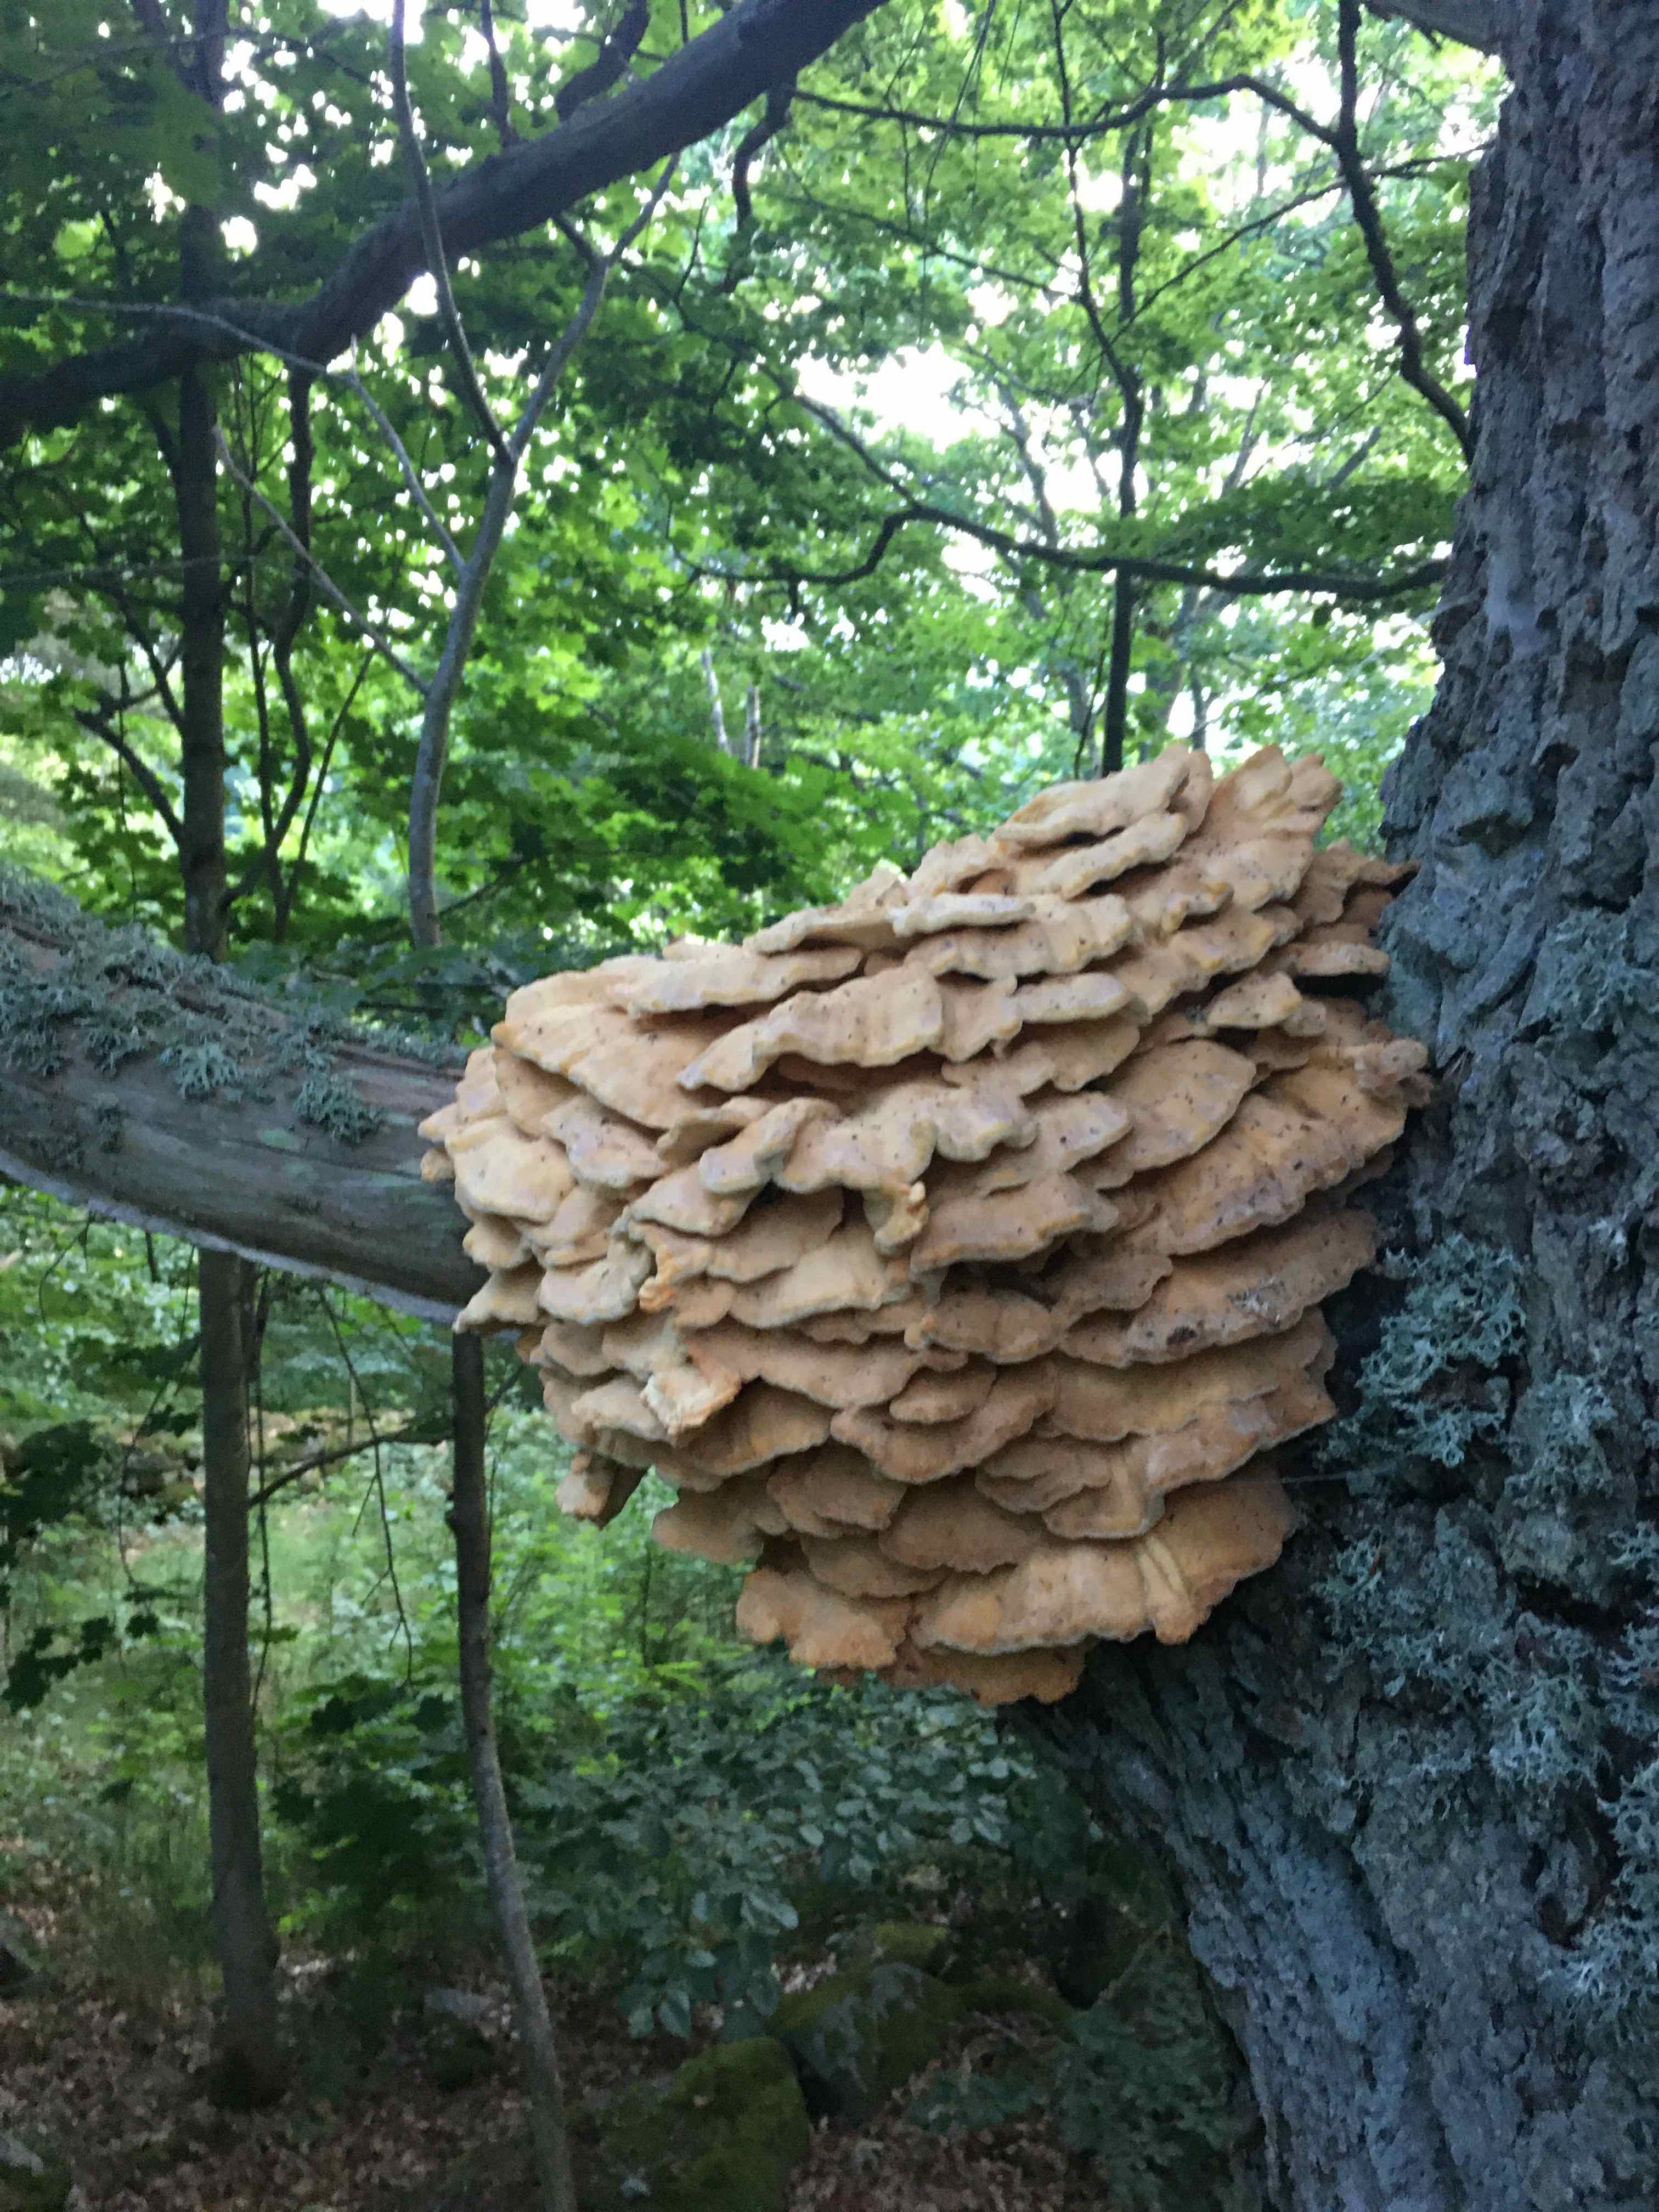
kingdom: Fungi
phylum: Basidiomycota
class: Agaricomycetes
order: Polyporales
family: Laetiporaceae
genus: Laetiporus
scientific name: Laetiporus sulphureus
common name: svovlporesvamp
